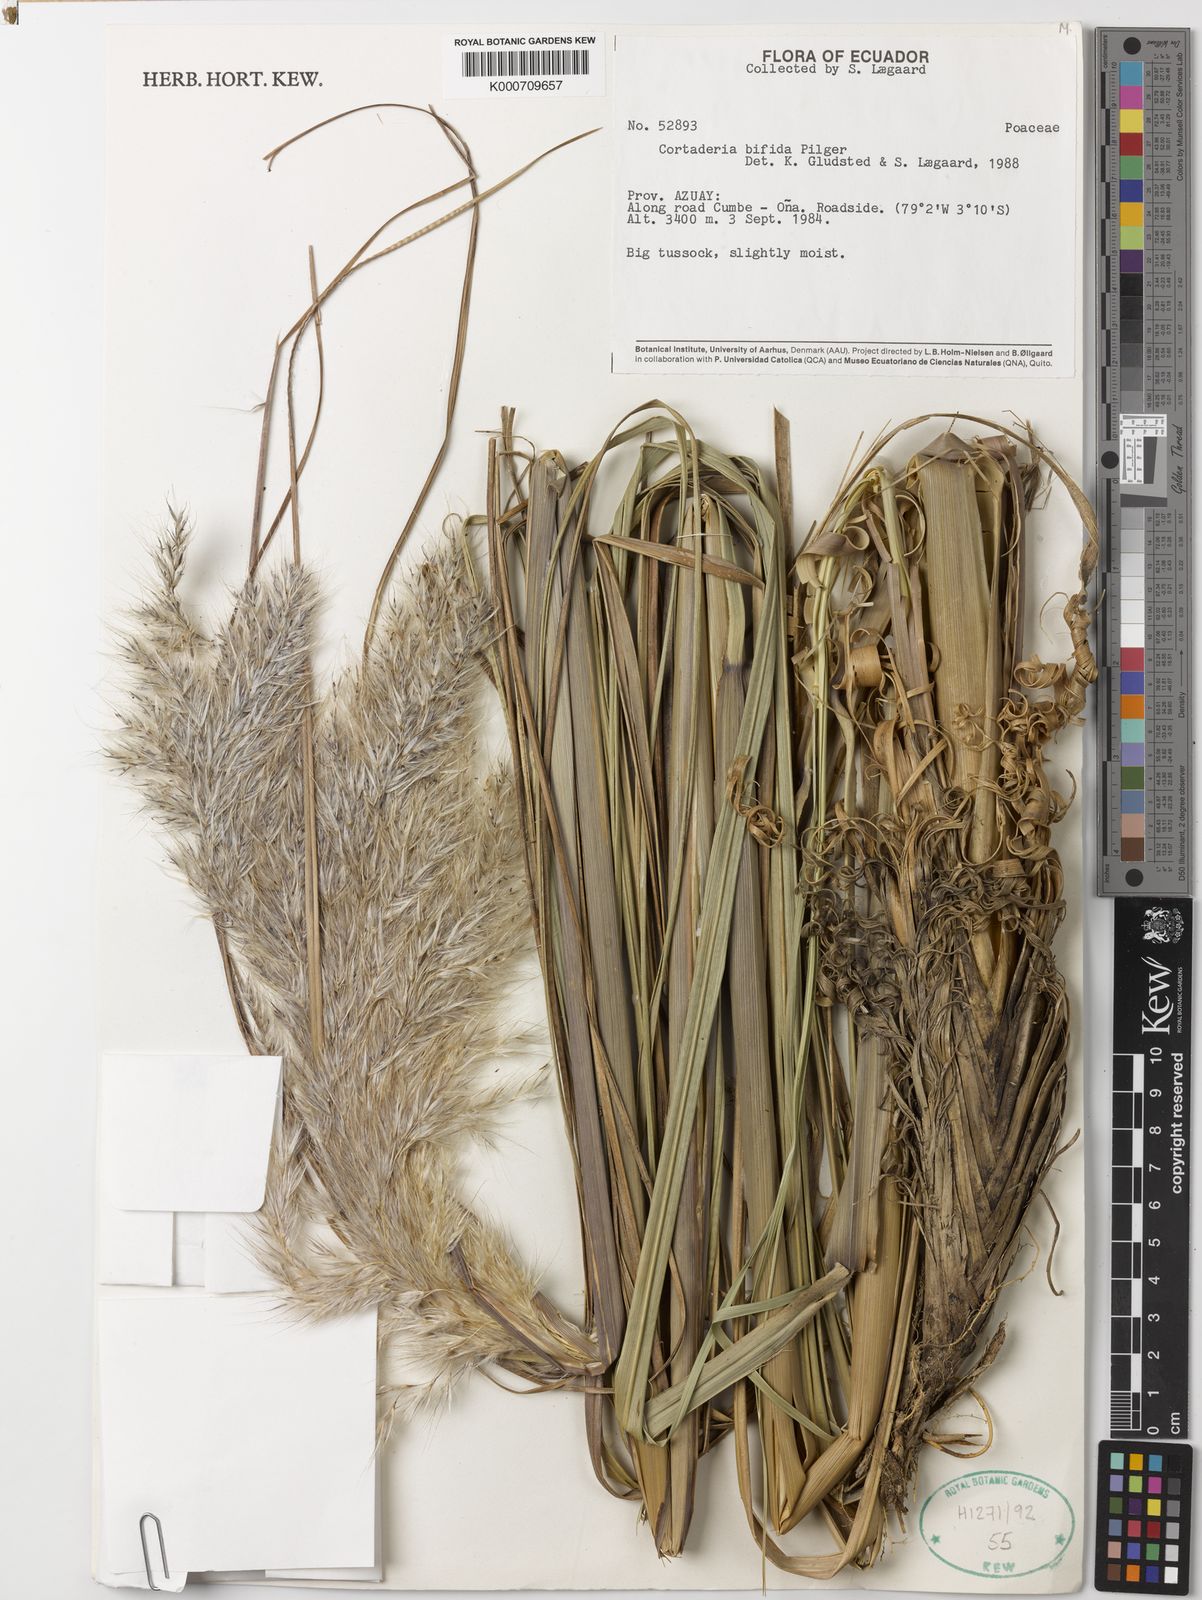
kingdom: Plantae
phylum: Tracheophyta
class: Liliopsida
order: Poales
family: Poaceae
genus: Cortaderia
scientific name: Cortaderia
